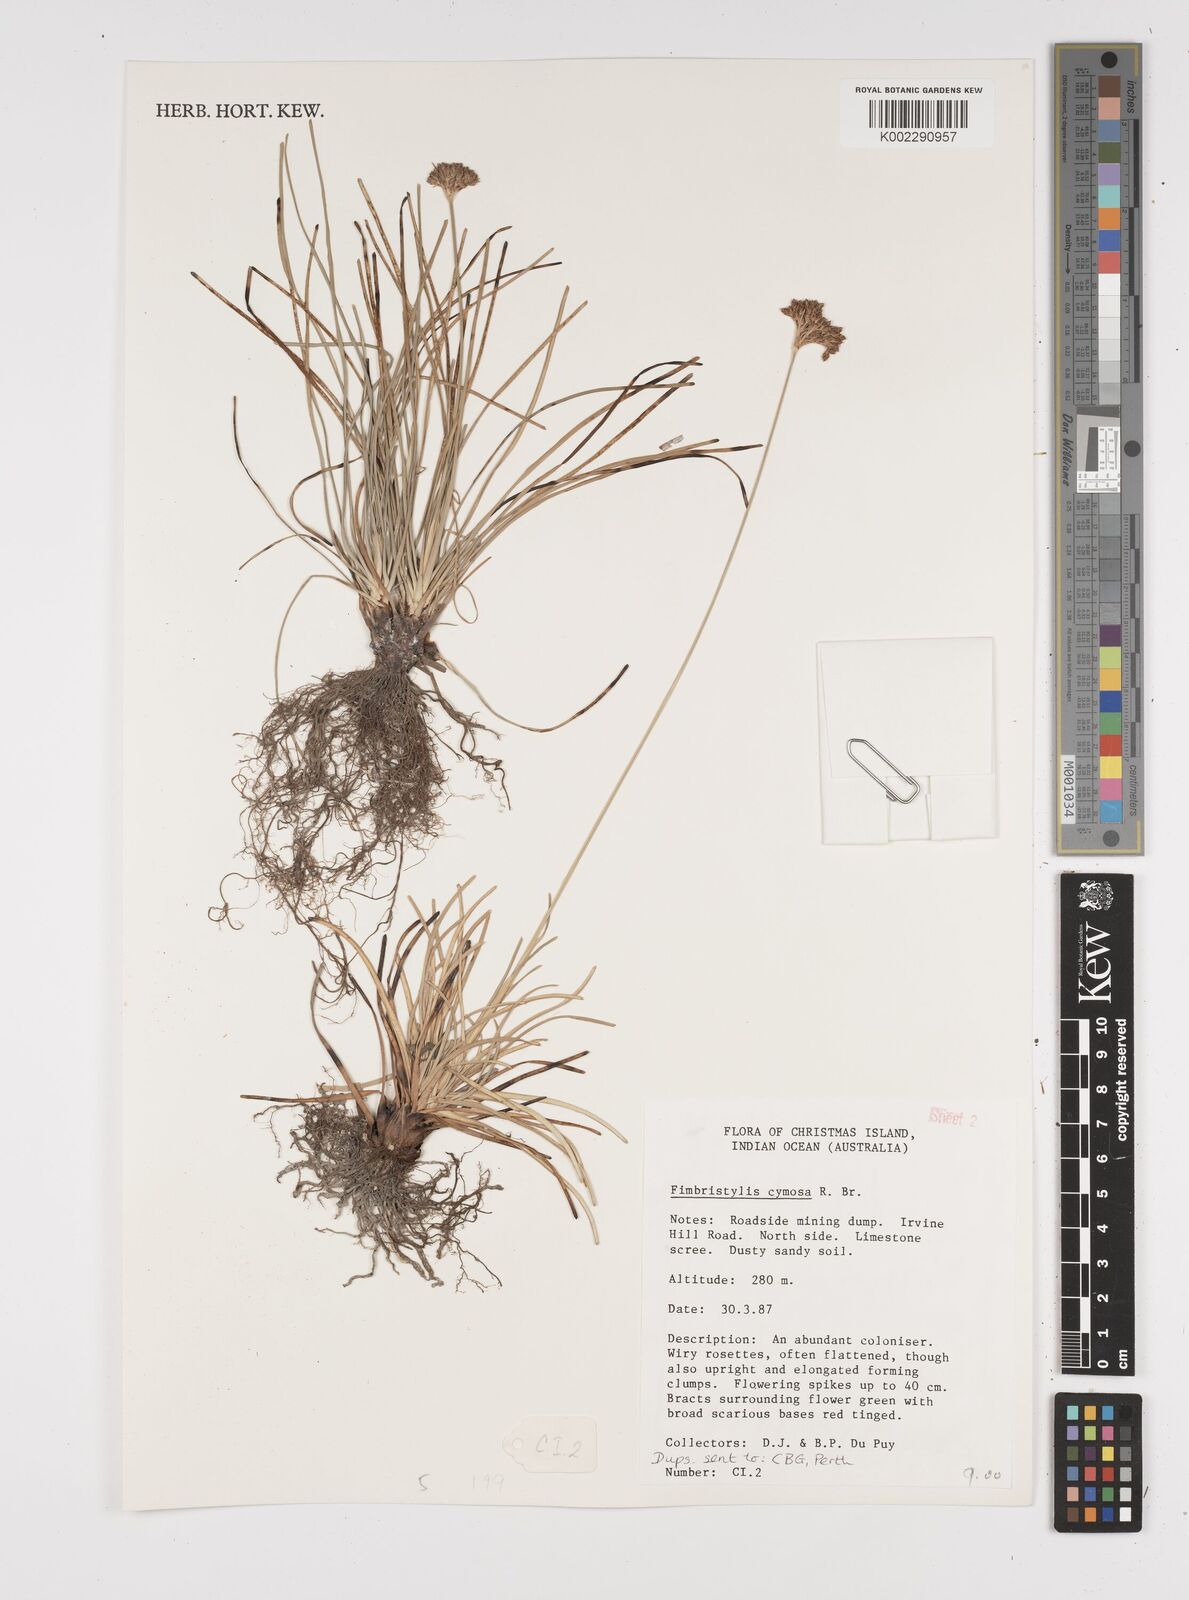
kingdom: Plantae
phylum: Tracheophyta
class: Liliopsida
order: Poales
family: Cyperaceae
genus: Fimbristylis
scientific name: Fimbristylis cymosa
